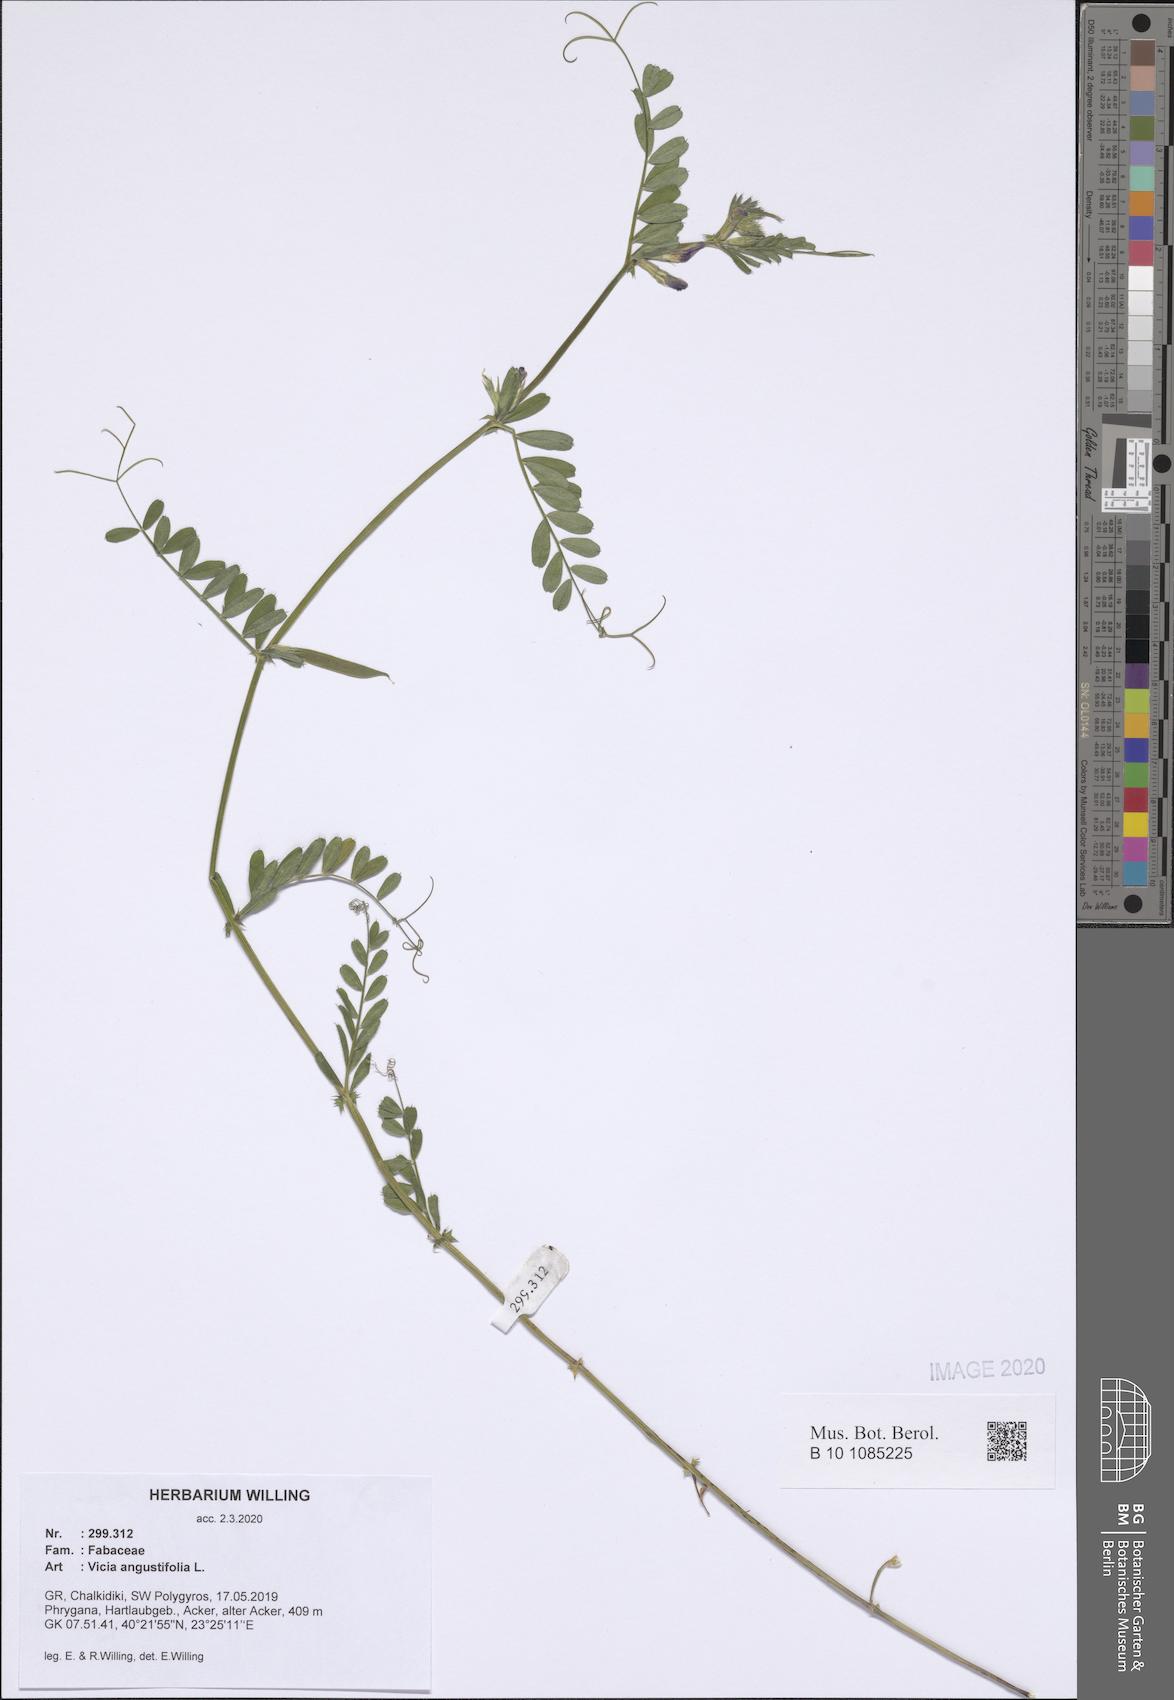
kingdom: Plantae
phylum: Tracheophyta
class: Magnoliopsida
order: Fabales
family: Fabaceae
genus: Vicia
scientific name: Vicia sativa
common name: Garden vetch
